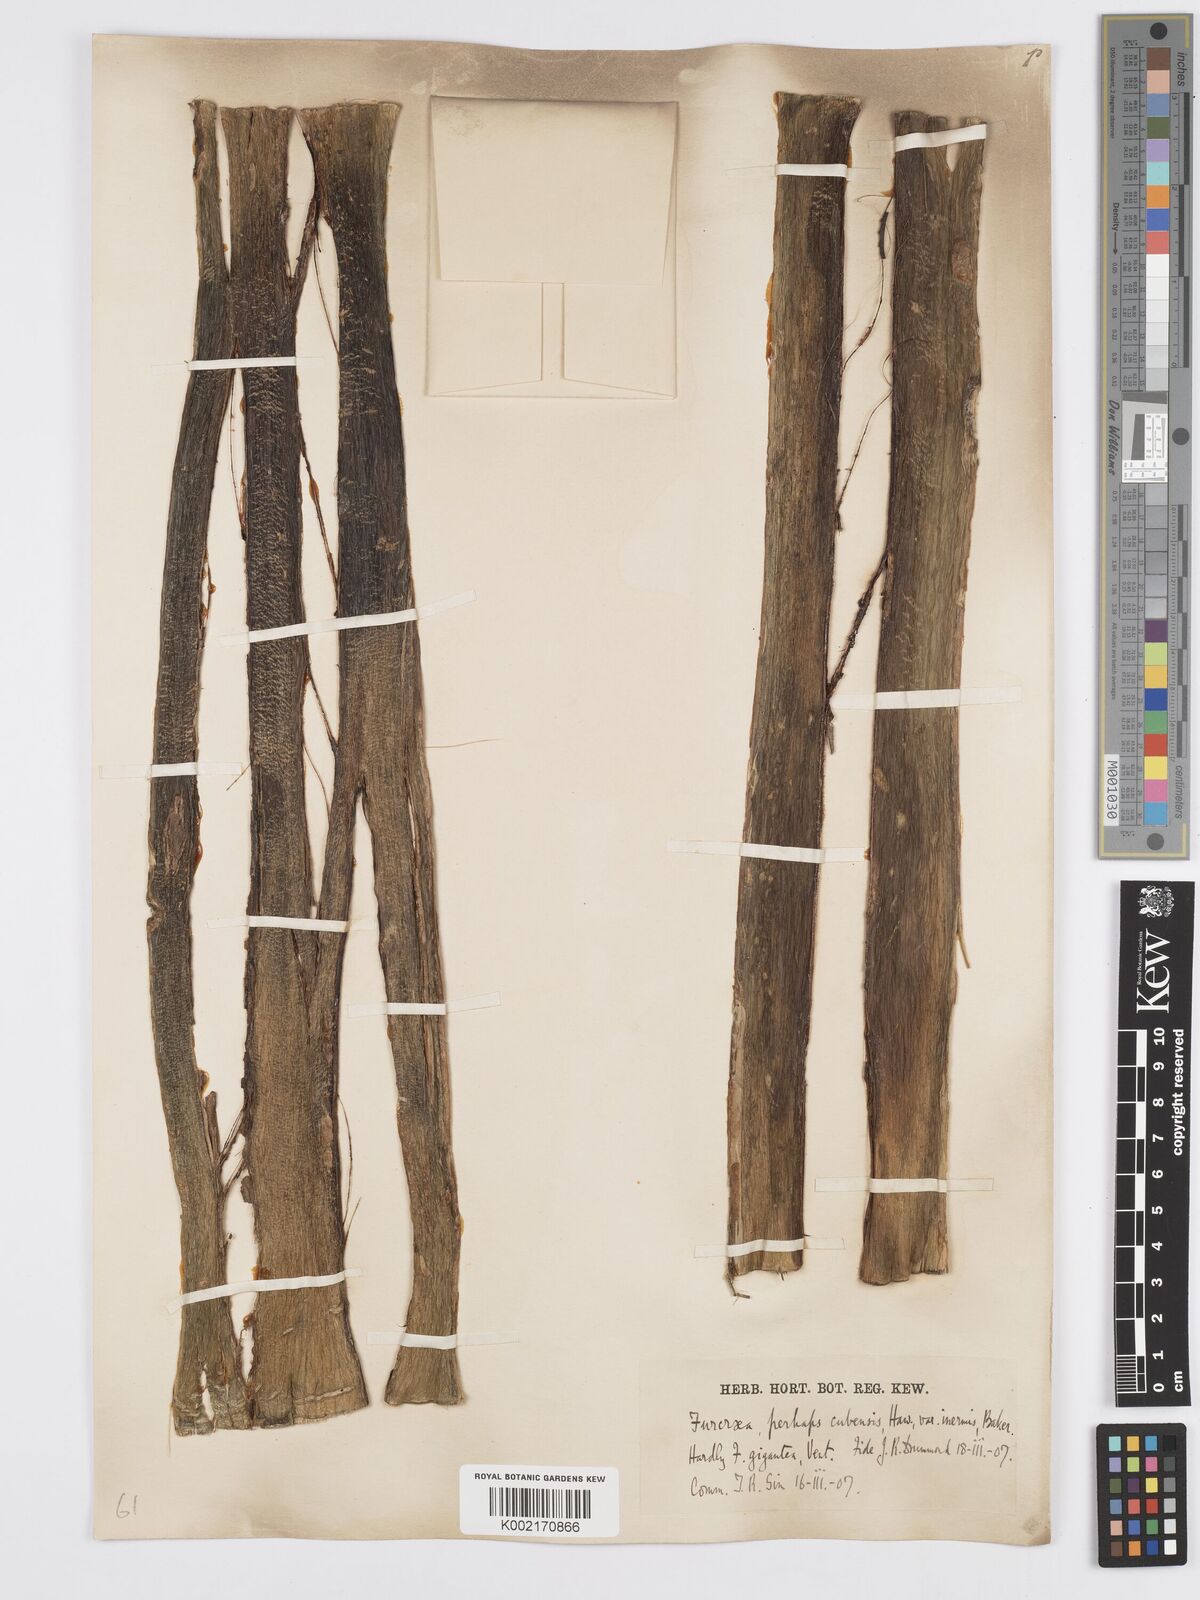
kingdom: Plantae
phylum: Tracheophyta
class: Liliopsida
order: Asparagales
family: Asparagaceae
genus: Furcraea
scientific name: Furcraea hexapetala
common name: Cuban-hemp
